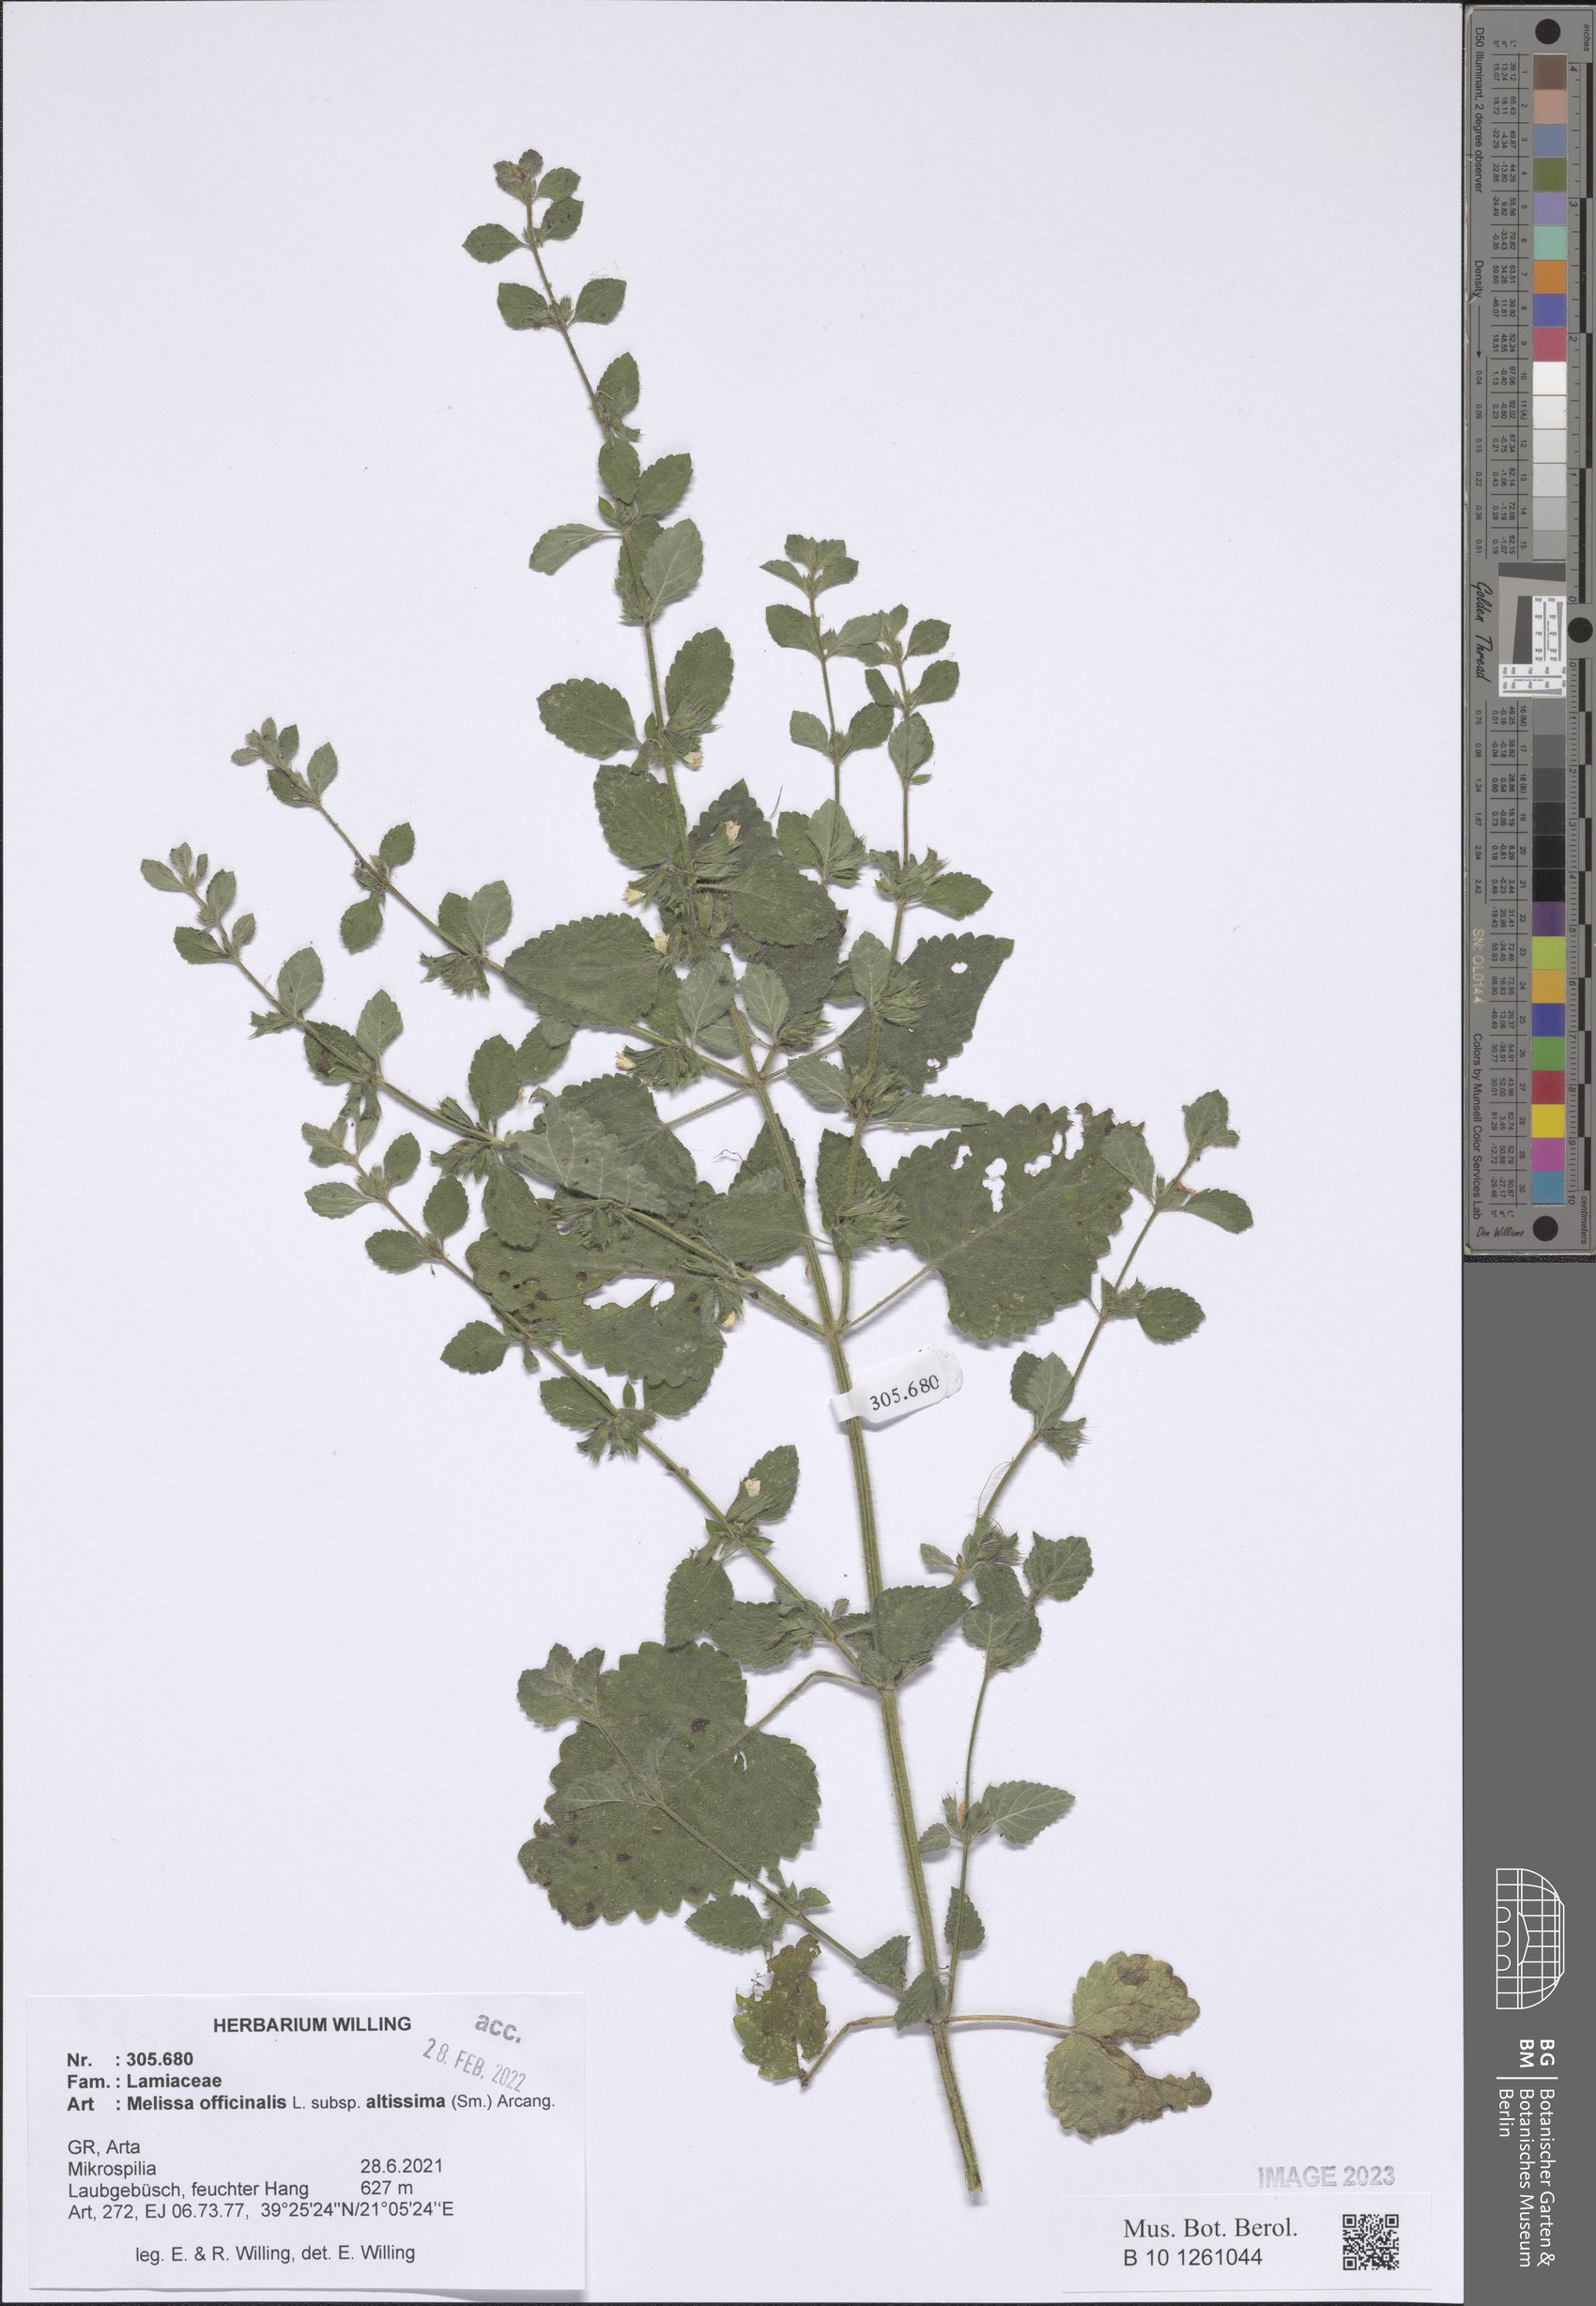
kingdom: Plantae
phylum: Tracheophyta
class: Magnoliopsida
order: Lamiales
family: Lamiaceae
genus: Melissa
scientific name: Melissa officinalis
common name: Balm
